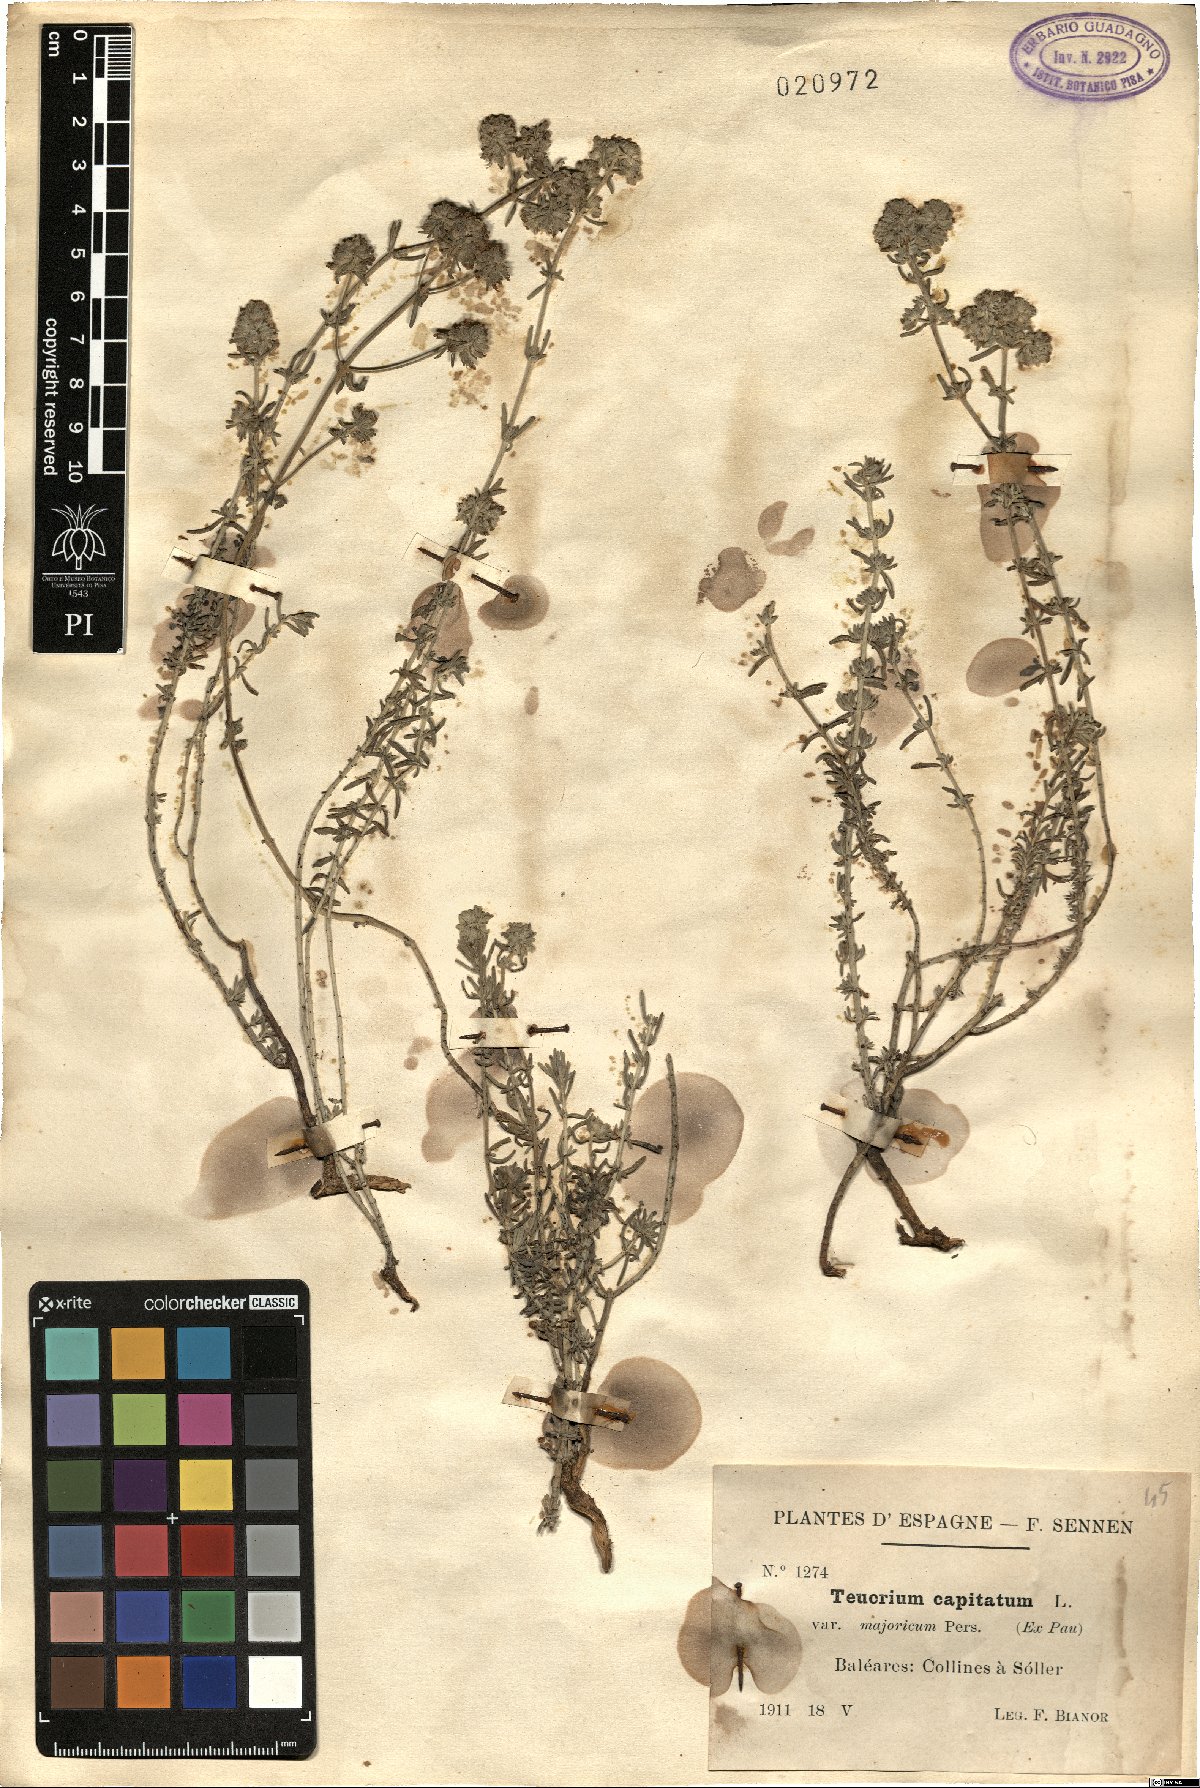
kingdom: Plantae
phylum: Tracheophyta
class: Magnoliopsida
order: Lamiales
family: Lamiaceae
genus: Teucrium
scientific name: Teucrium capitatum
